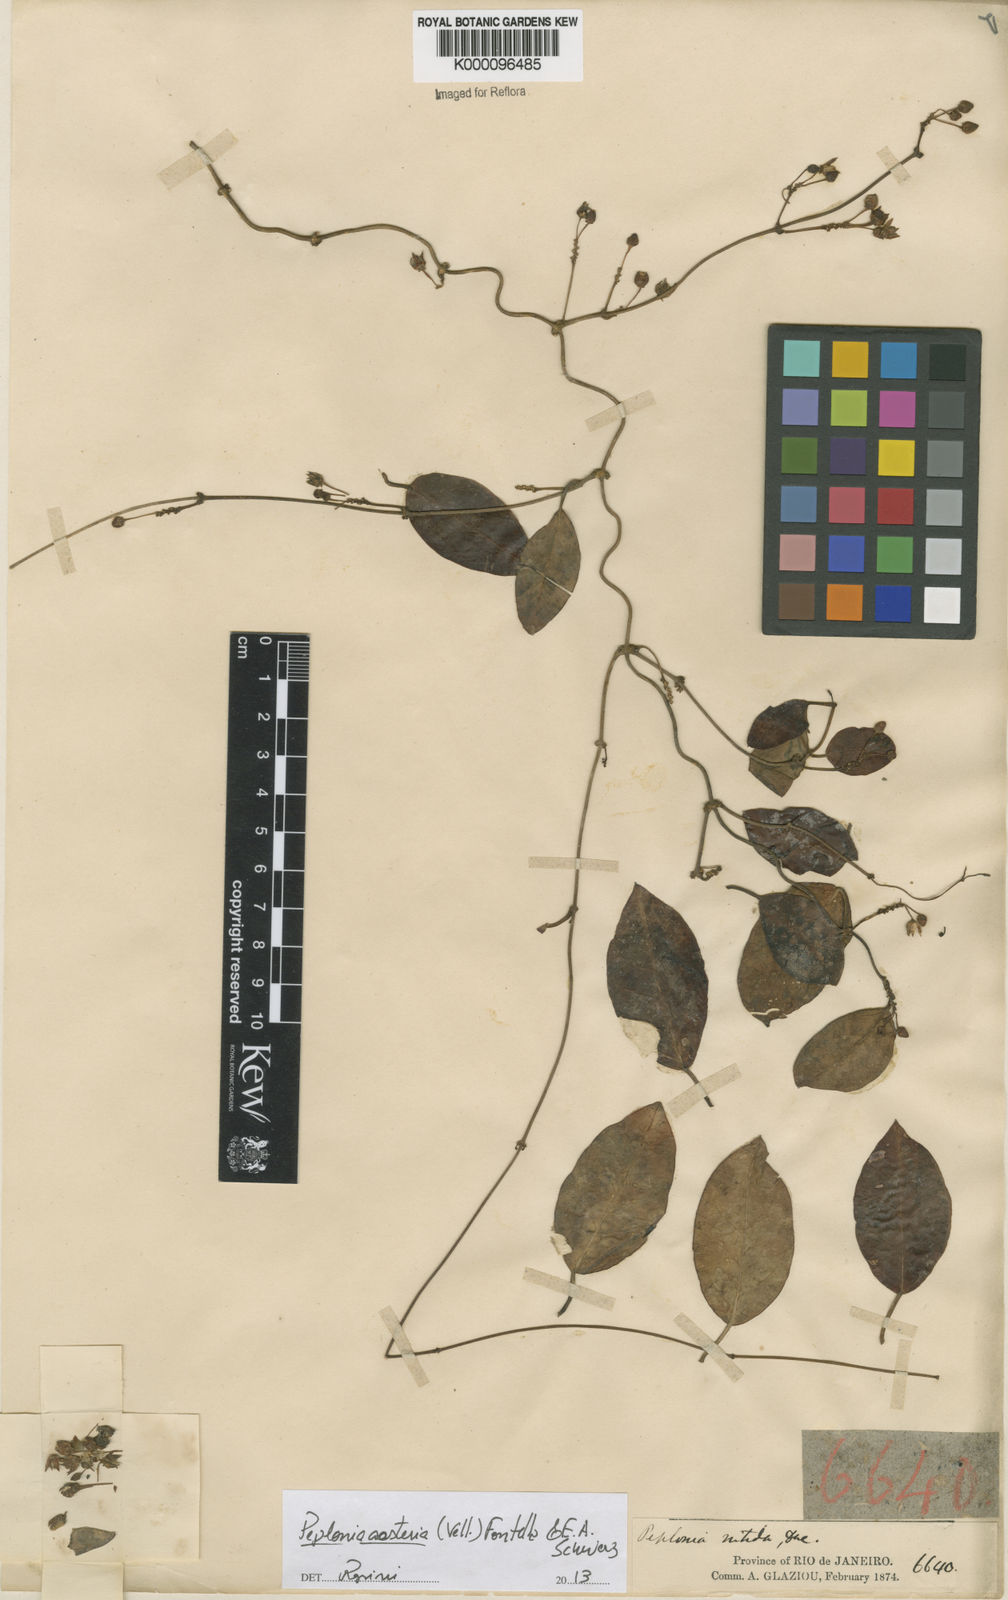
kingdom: Plantae
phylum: Tracheophyta
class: Magnoliopsida
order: Gentianales
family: Apocynaceae
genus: Peplonia
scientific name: Peplonia asteria
